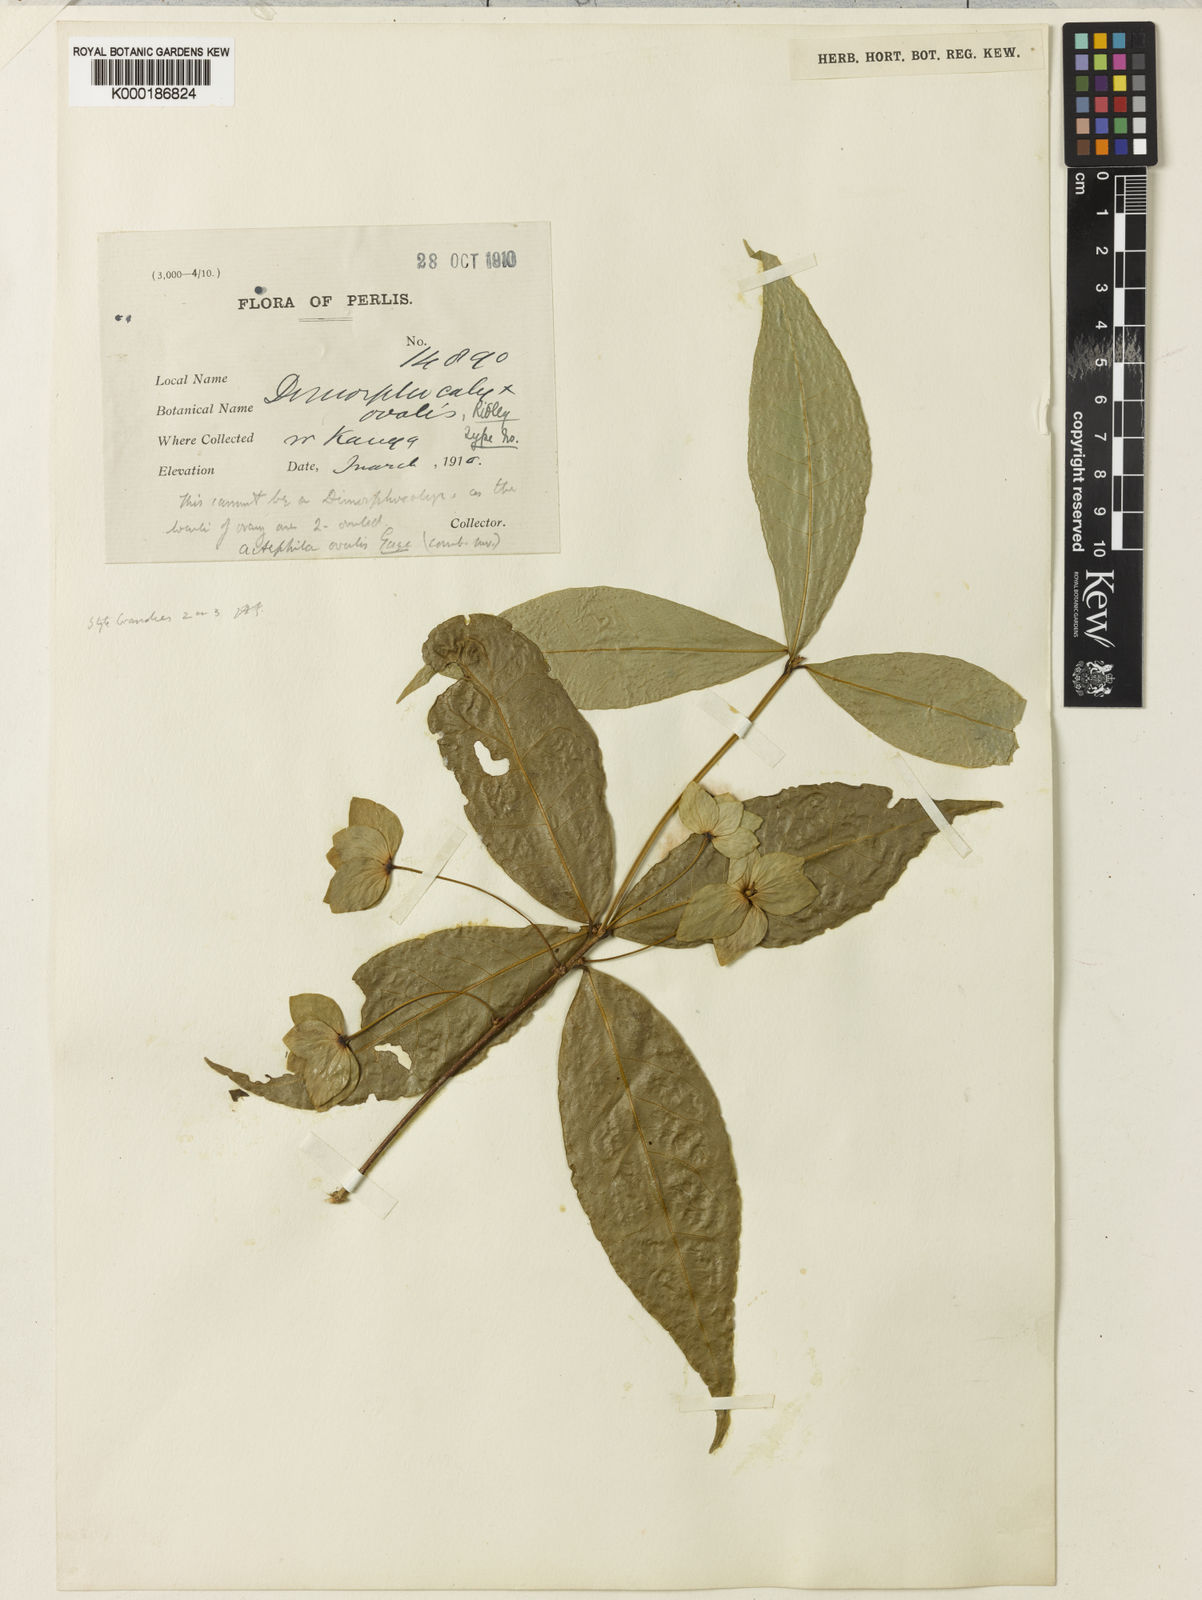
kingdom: Plantae
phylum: Tracheophyta
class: Magnoliopsida
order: Malpighiales
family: Phyllanthaceae
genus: Actephila
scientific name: Actephila ovalis
